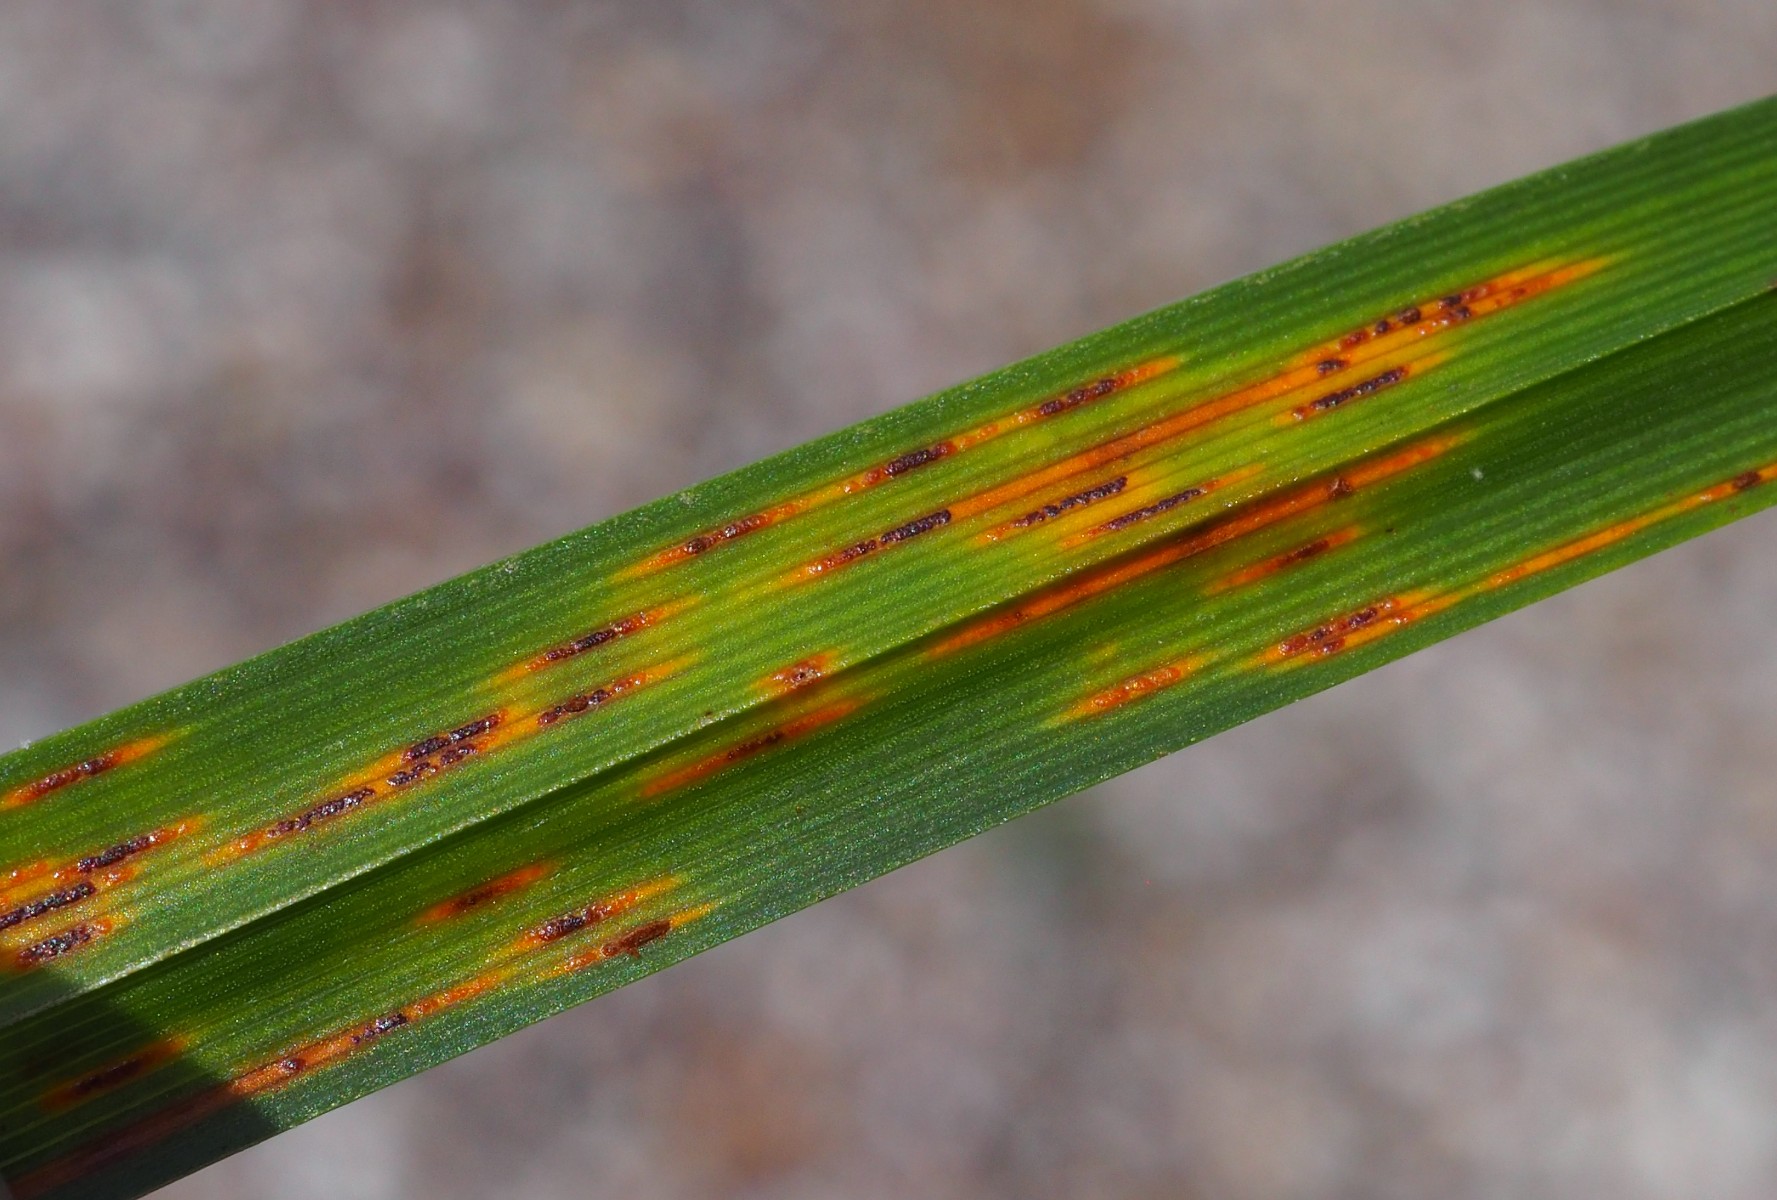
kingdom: Fungi
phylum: Basidiomycota
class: Pucciniomycetes
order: Pucciniales
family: Pucciniaceae
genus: Uromyces
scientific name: Uromyces lineolatus
